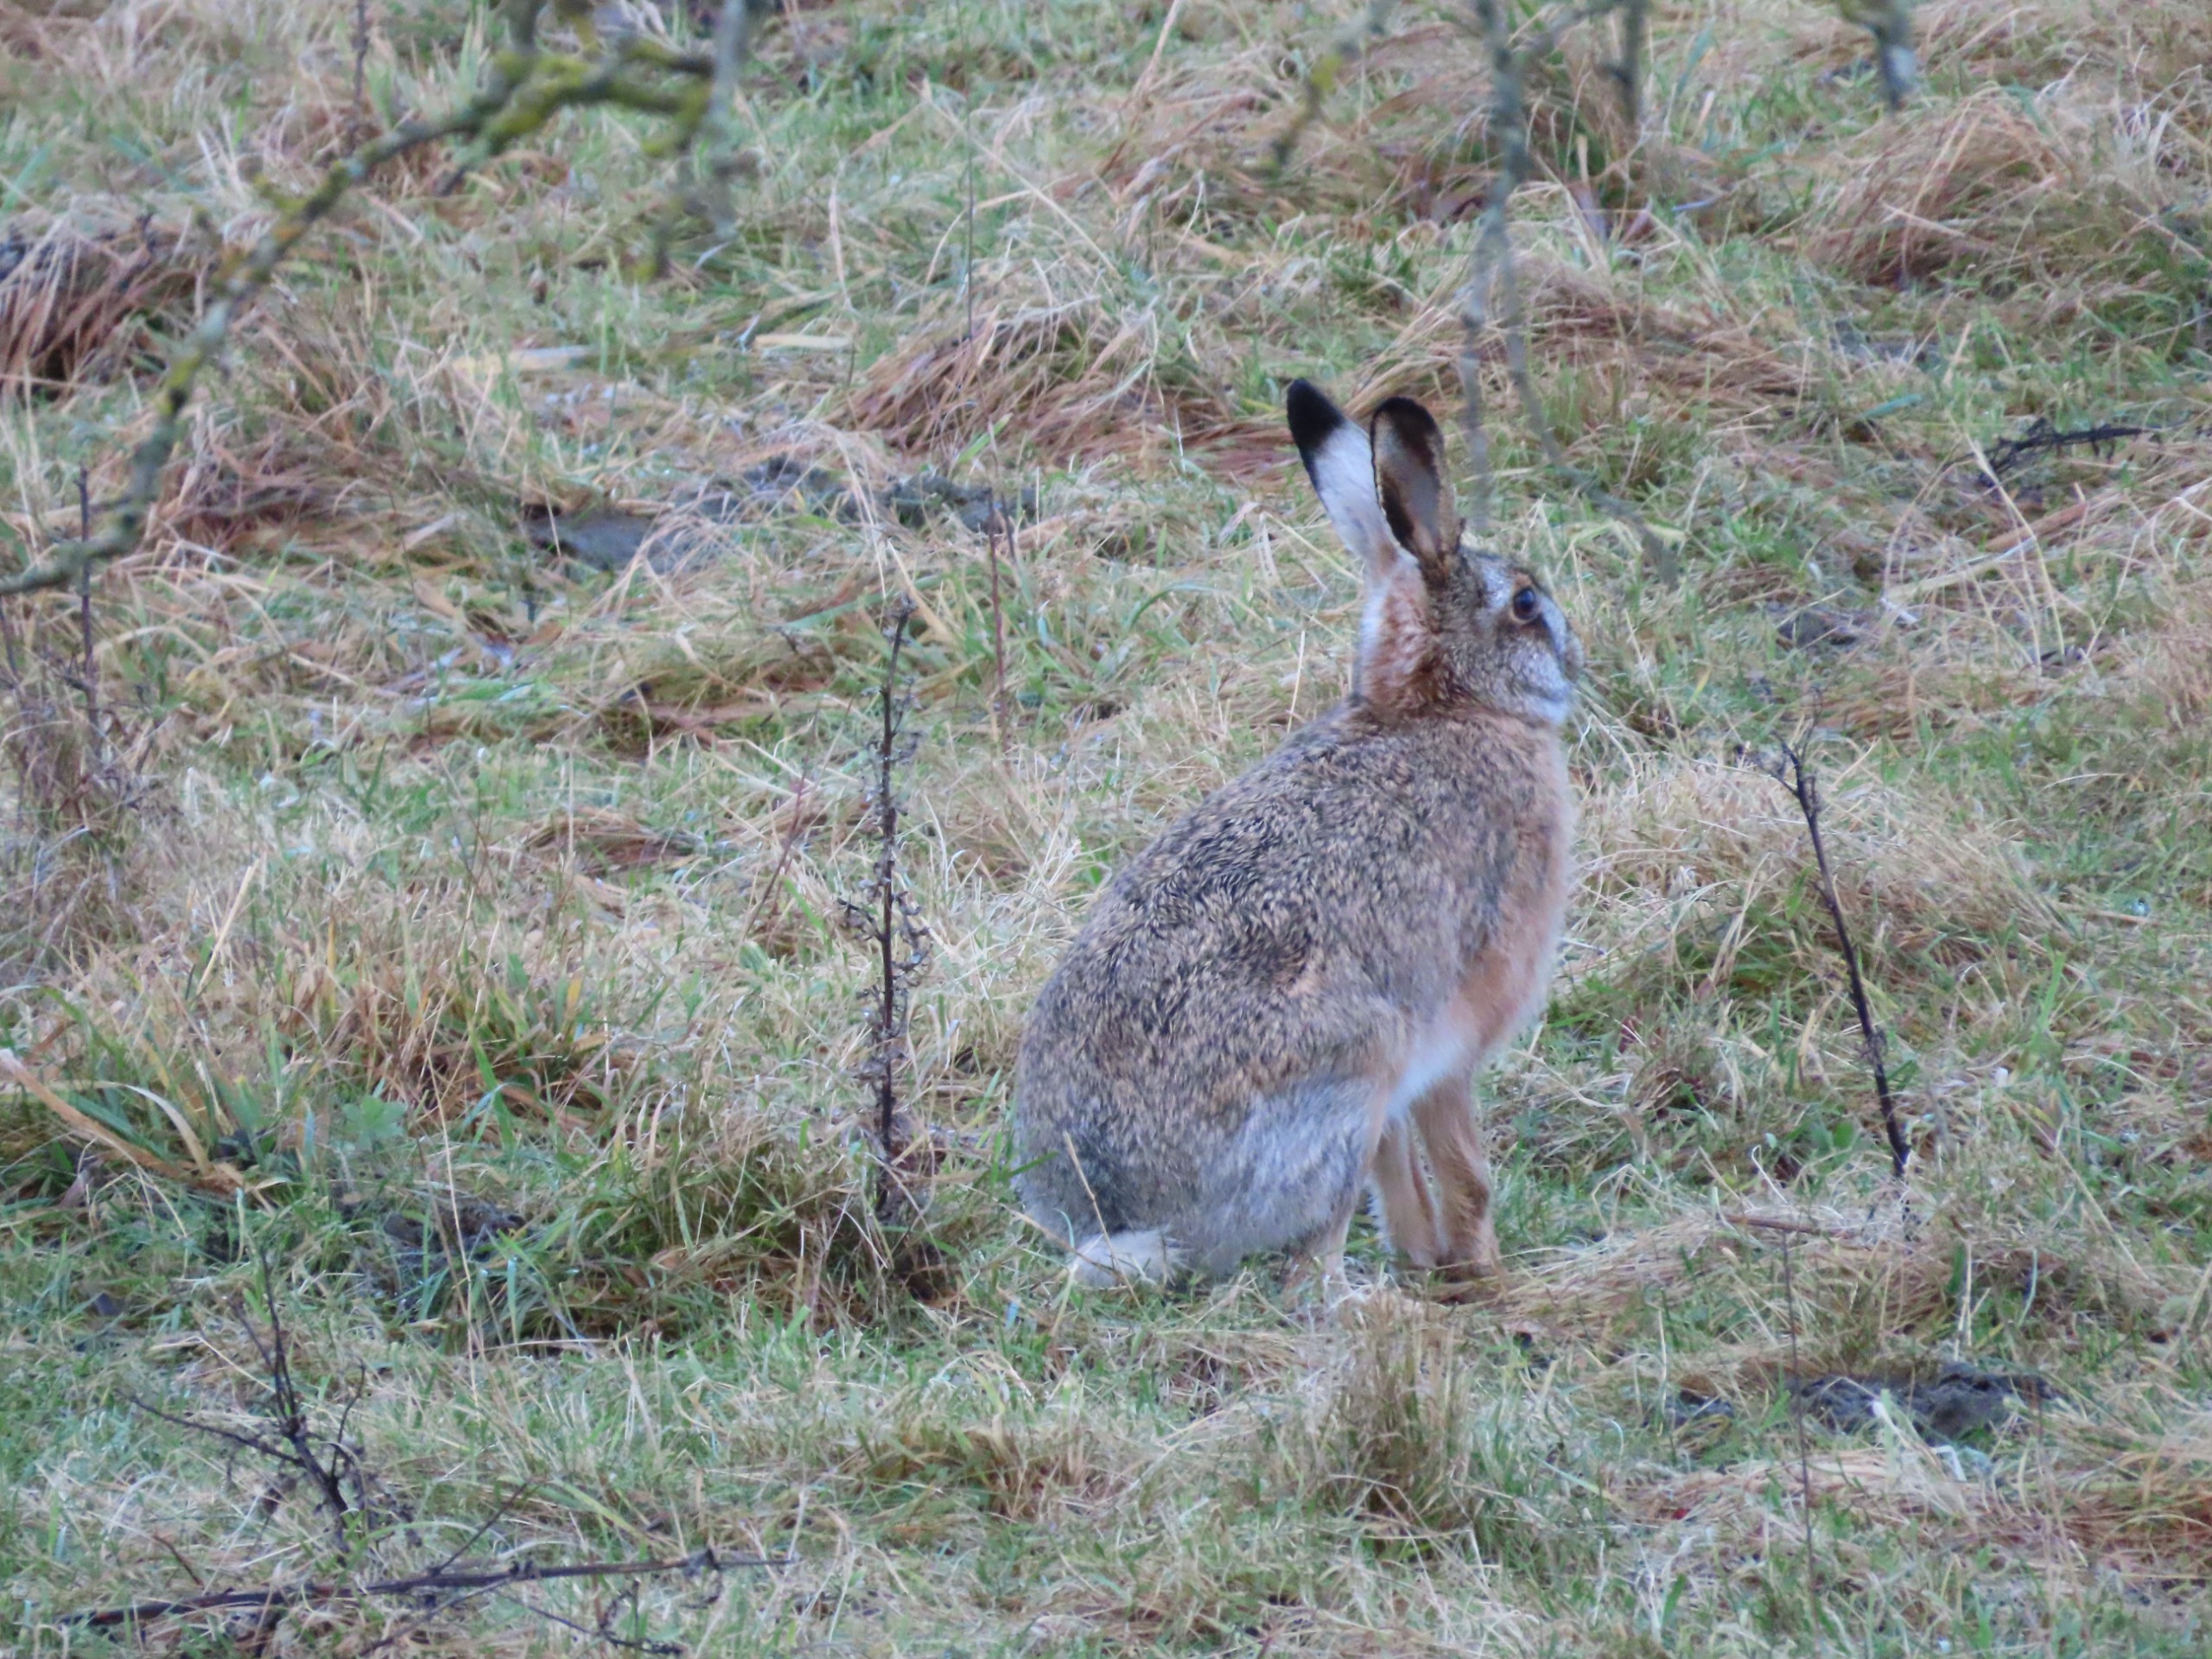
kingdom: Animalia
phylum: Chordata
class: Mammalia
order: Lagomorpha
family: Leporidae
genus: Lepus
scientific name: Lepus europaeus
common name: Hare
